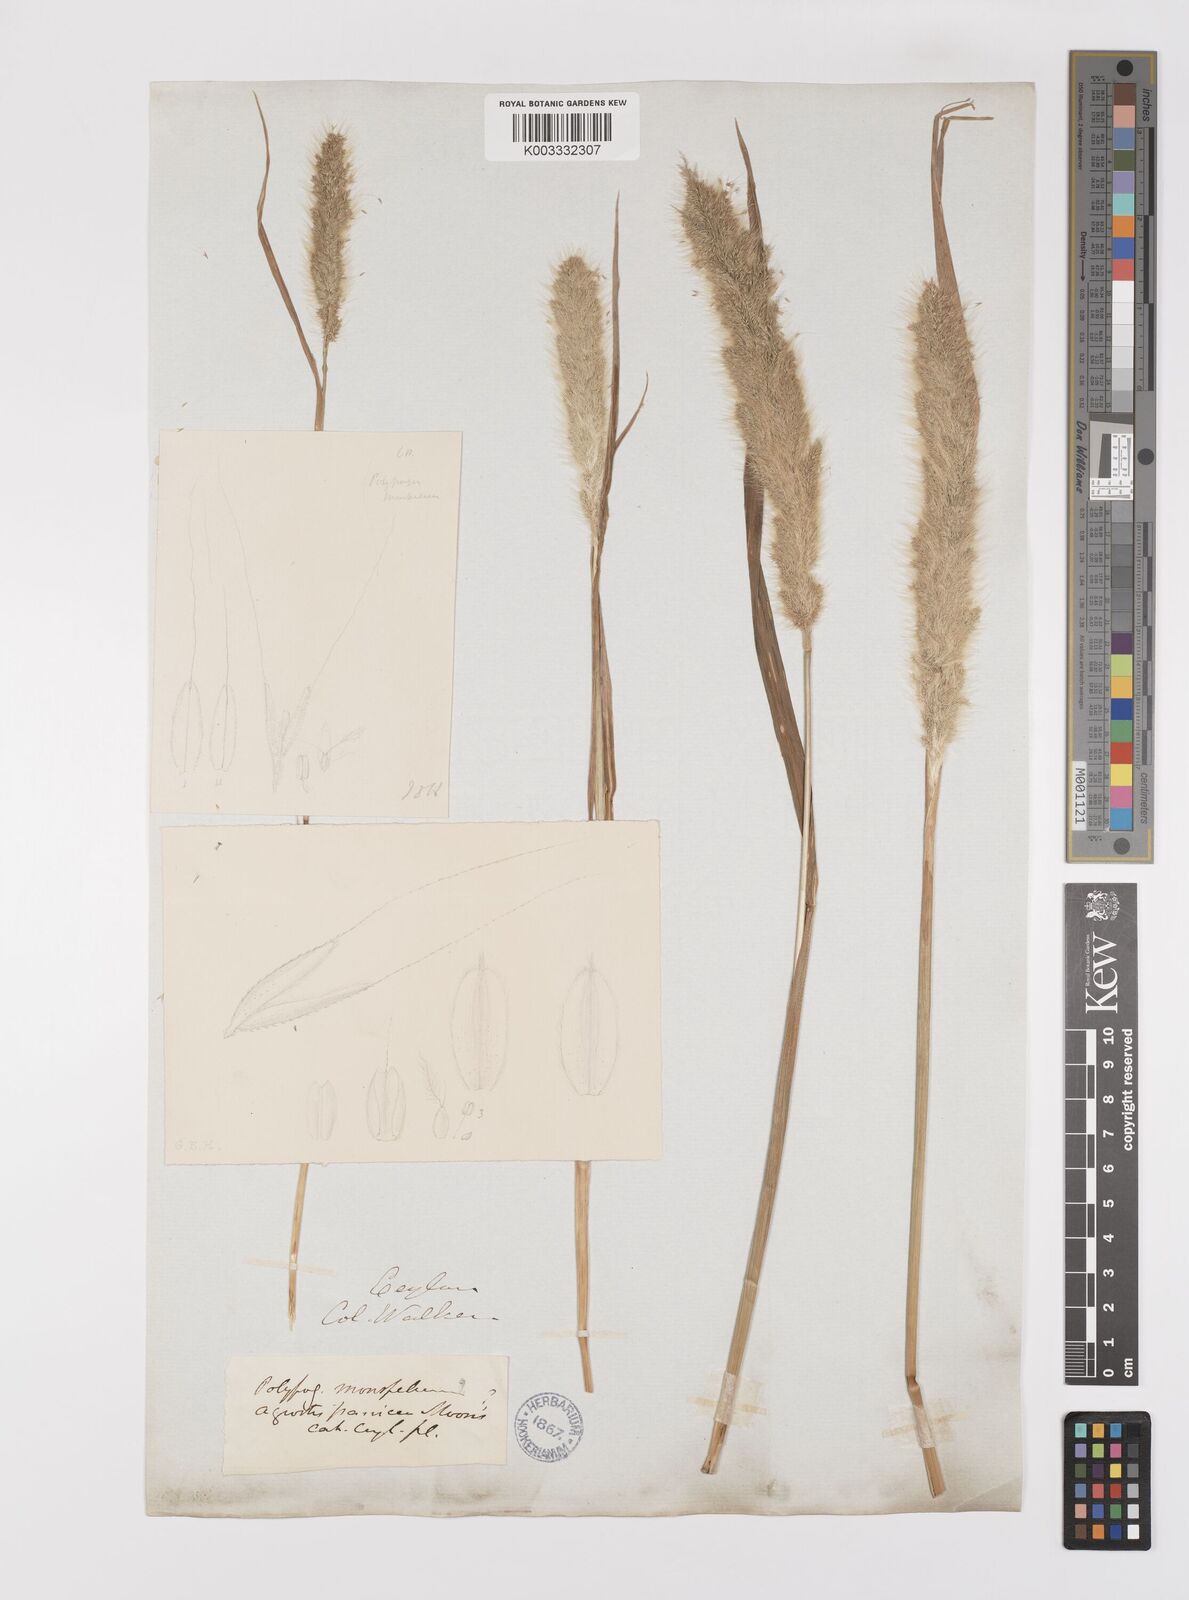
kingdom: Plantae
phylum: Tracheophyta
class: Liliopsida
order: Poales
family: Poaceae
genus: Polypogon
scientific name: Polypogon monspeliensis
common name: Annual rabbitsfoot grass
